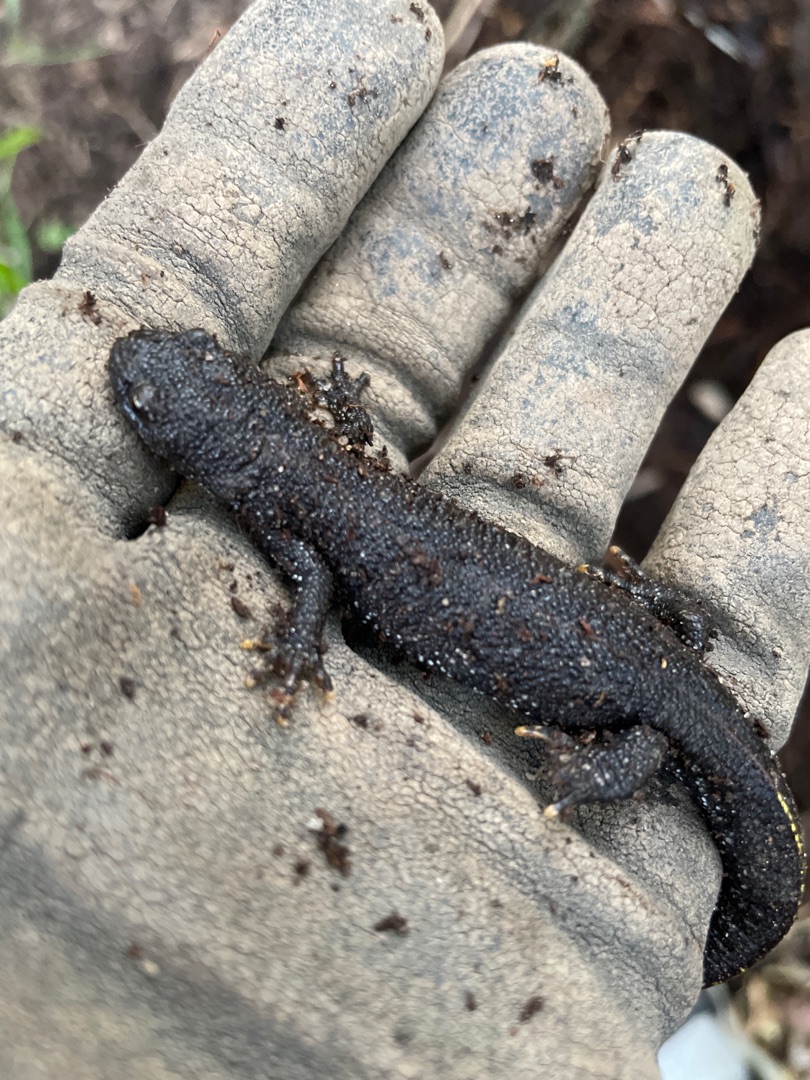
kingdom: Animalia
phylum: Chordata
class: Amphibia
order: Caudata
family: Salamandridae
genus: Triturus
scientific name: Triturus cristatus
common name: Stor vandsalamander
